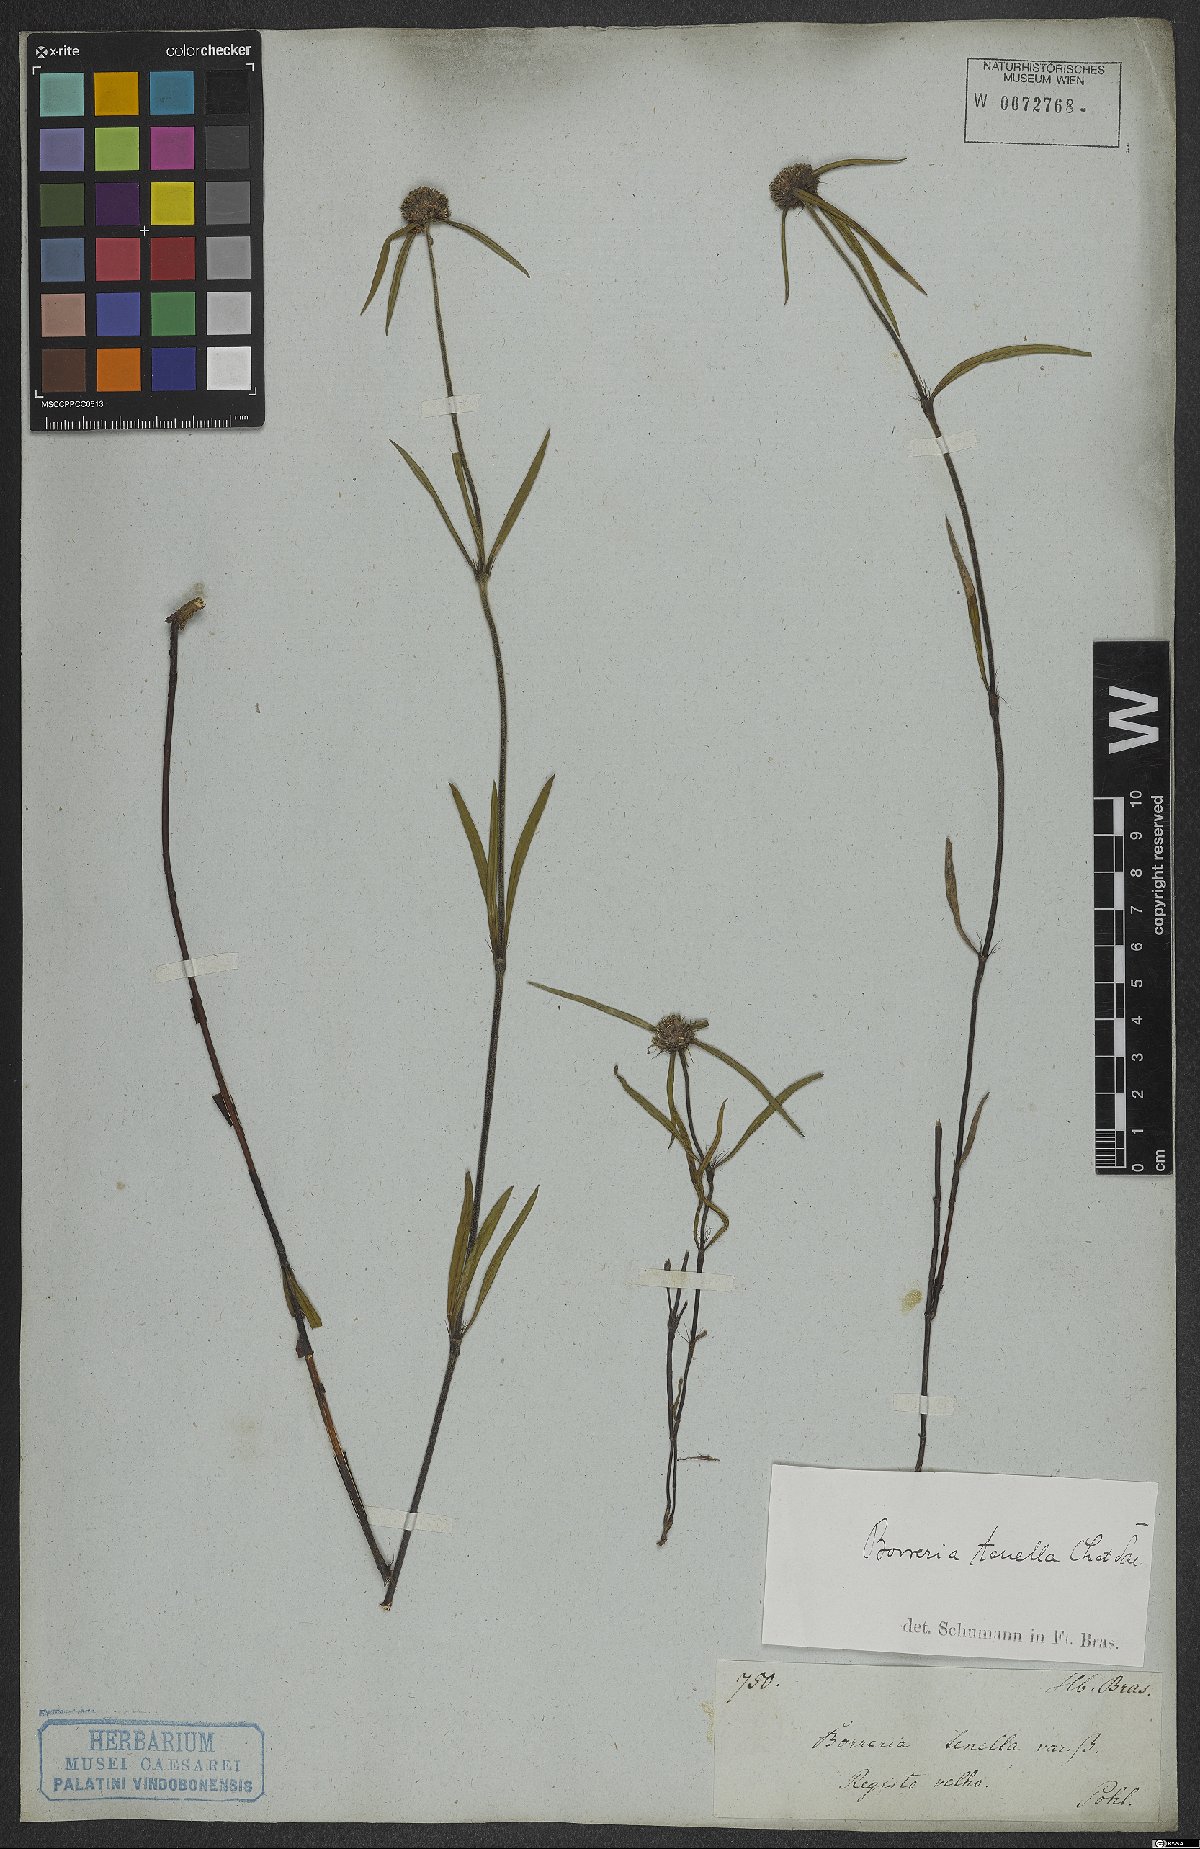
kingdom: Plantae
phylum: Tracheophyta
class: Magnoliopsida
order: Gentianales
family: Rubiaceae
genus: Spermacoce
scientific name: Spermacoce orinocensis
